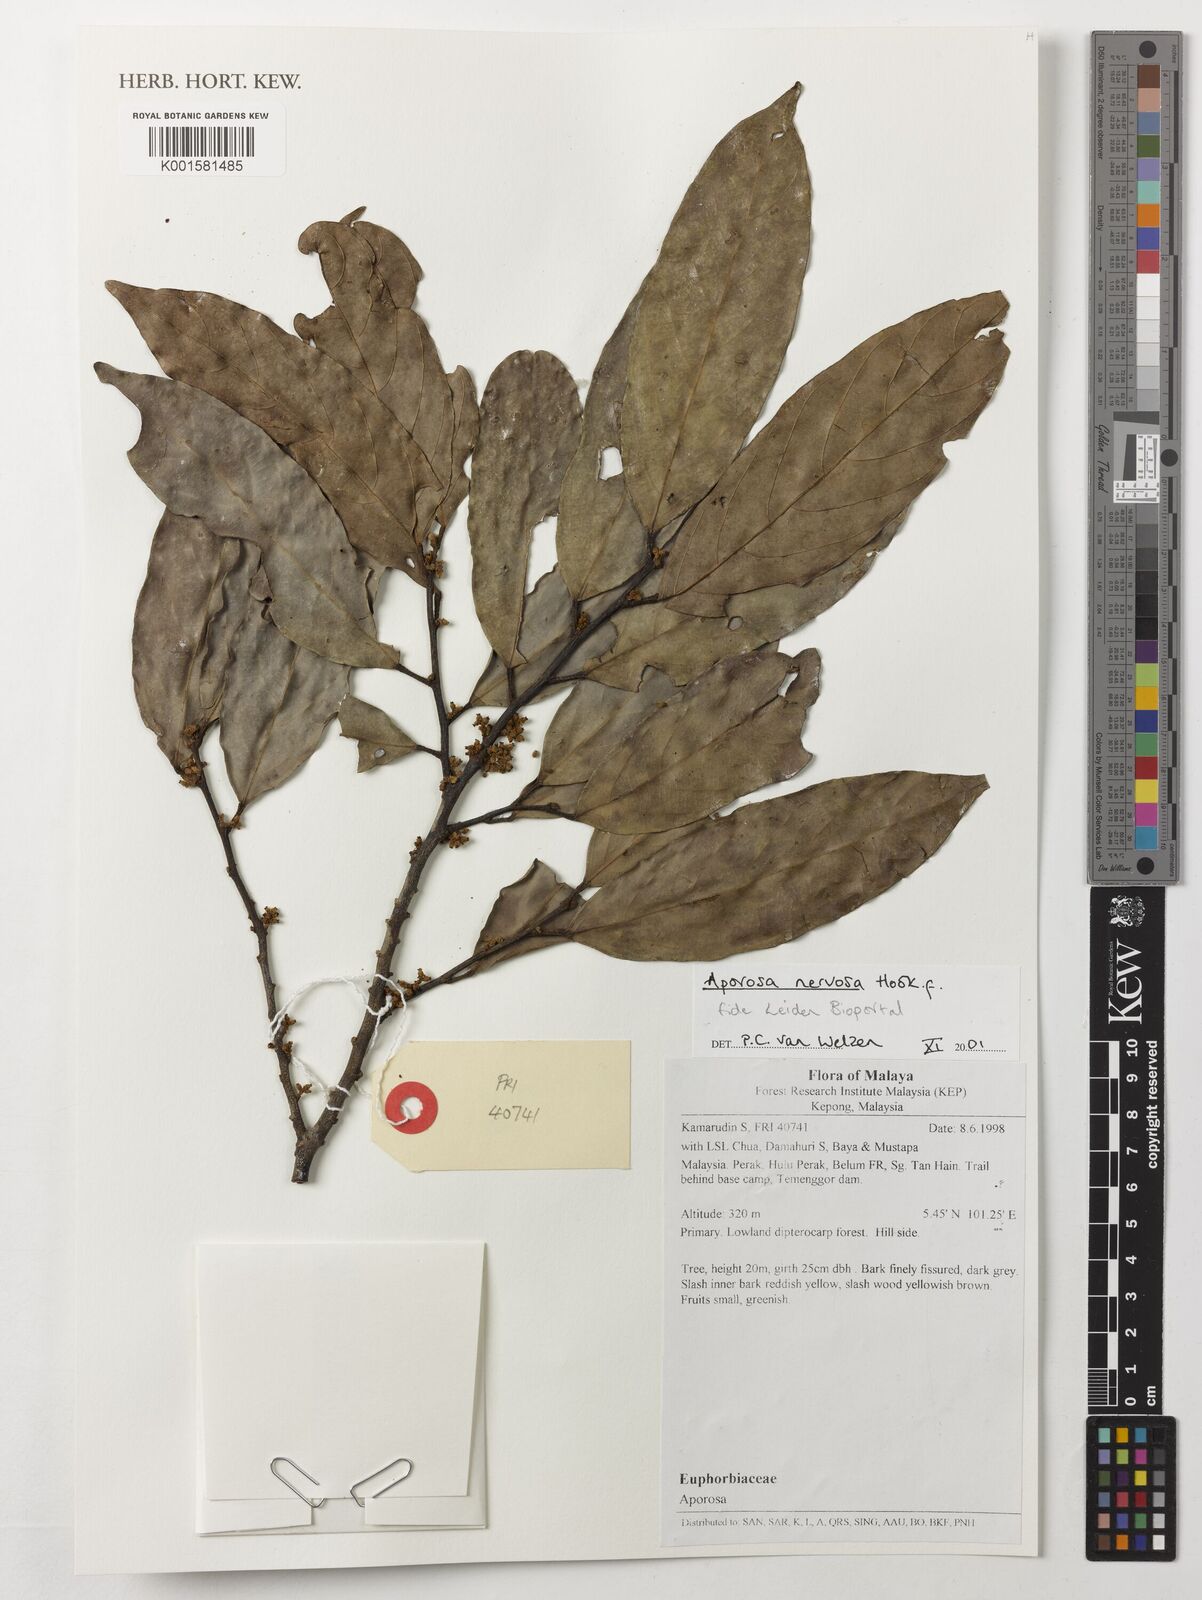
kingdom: Plantae
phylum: Tracheophyta
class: Magnoliopsida
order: Malpighiales
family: Phyllanthaceae
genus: Aporosa
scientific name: Aporosa nervosa
